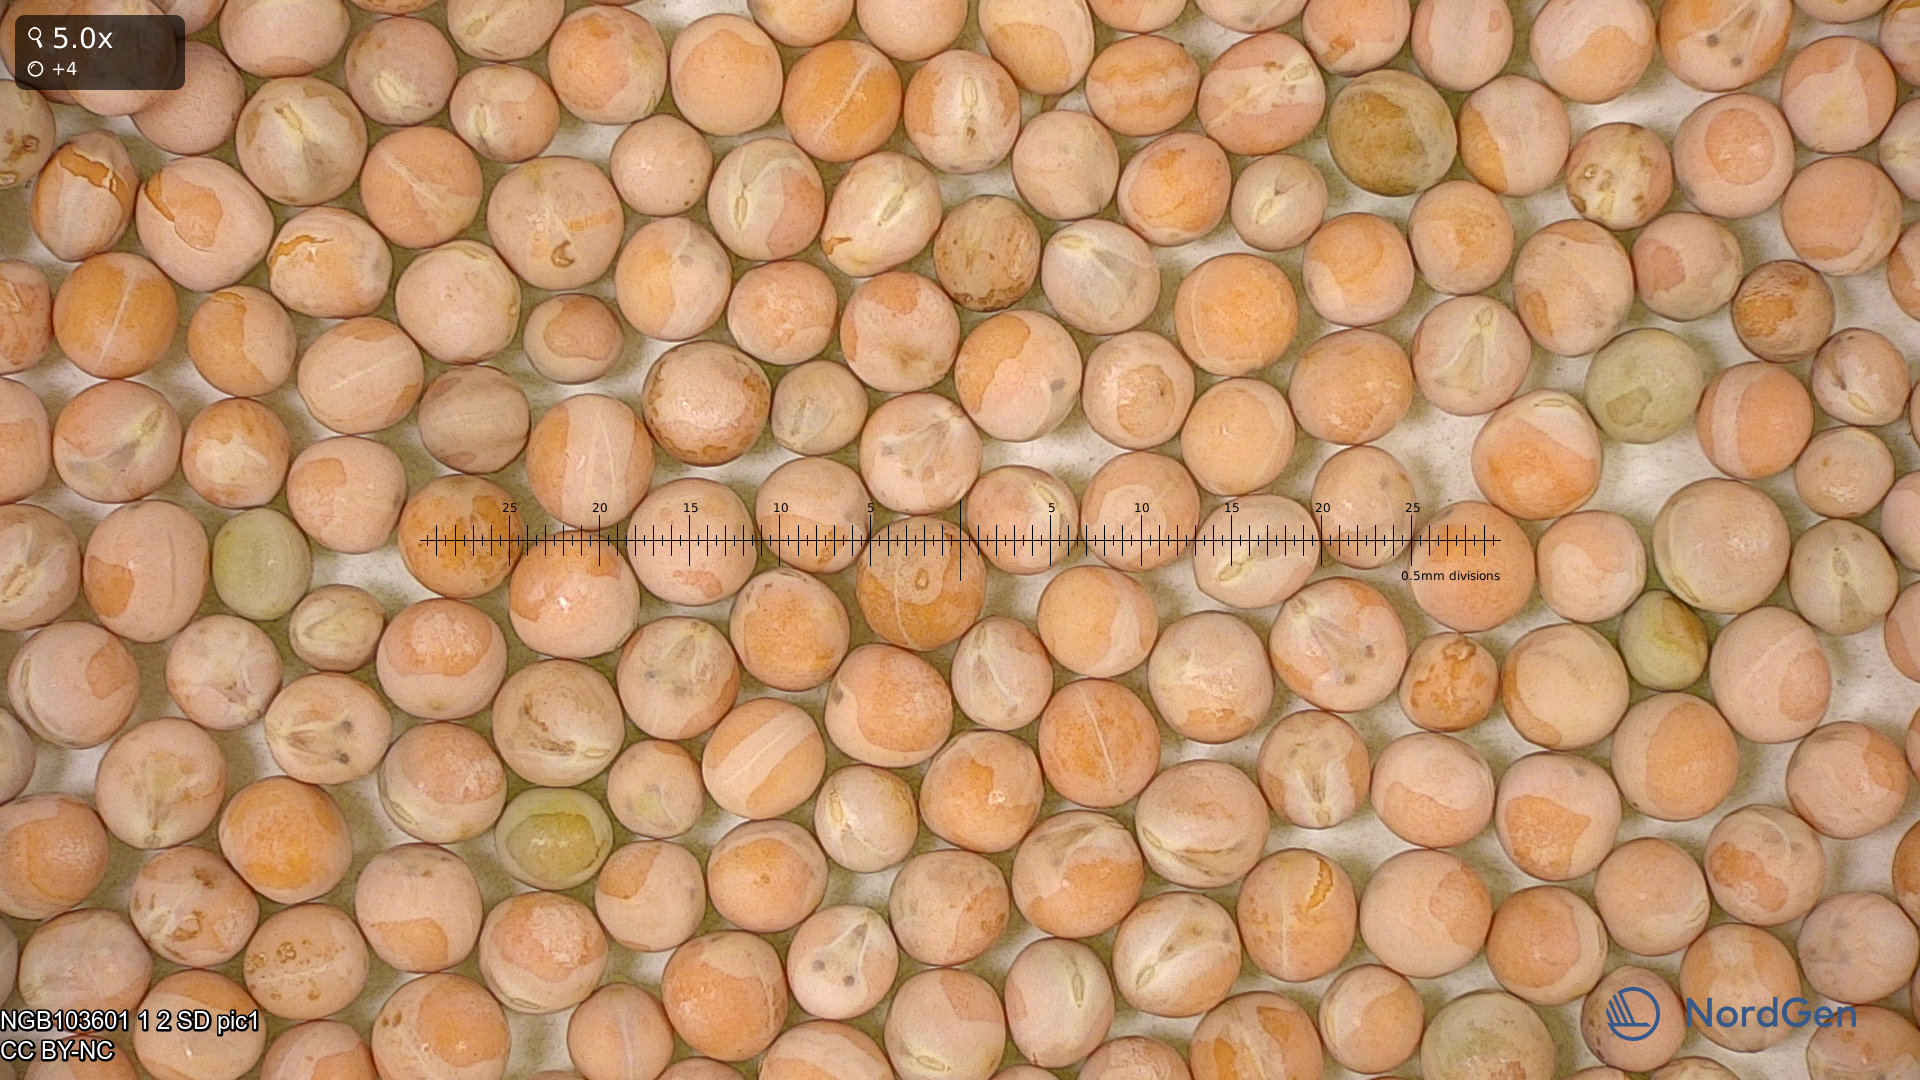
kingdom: Plantae
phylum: Tracheophyta
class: Magnoliopsida
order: Fabales
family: Fabaceae
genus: Lathyrus
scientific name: Lathyrus oleraceus
